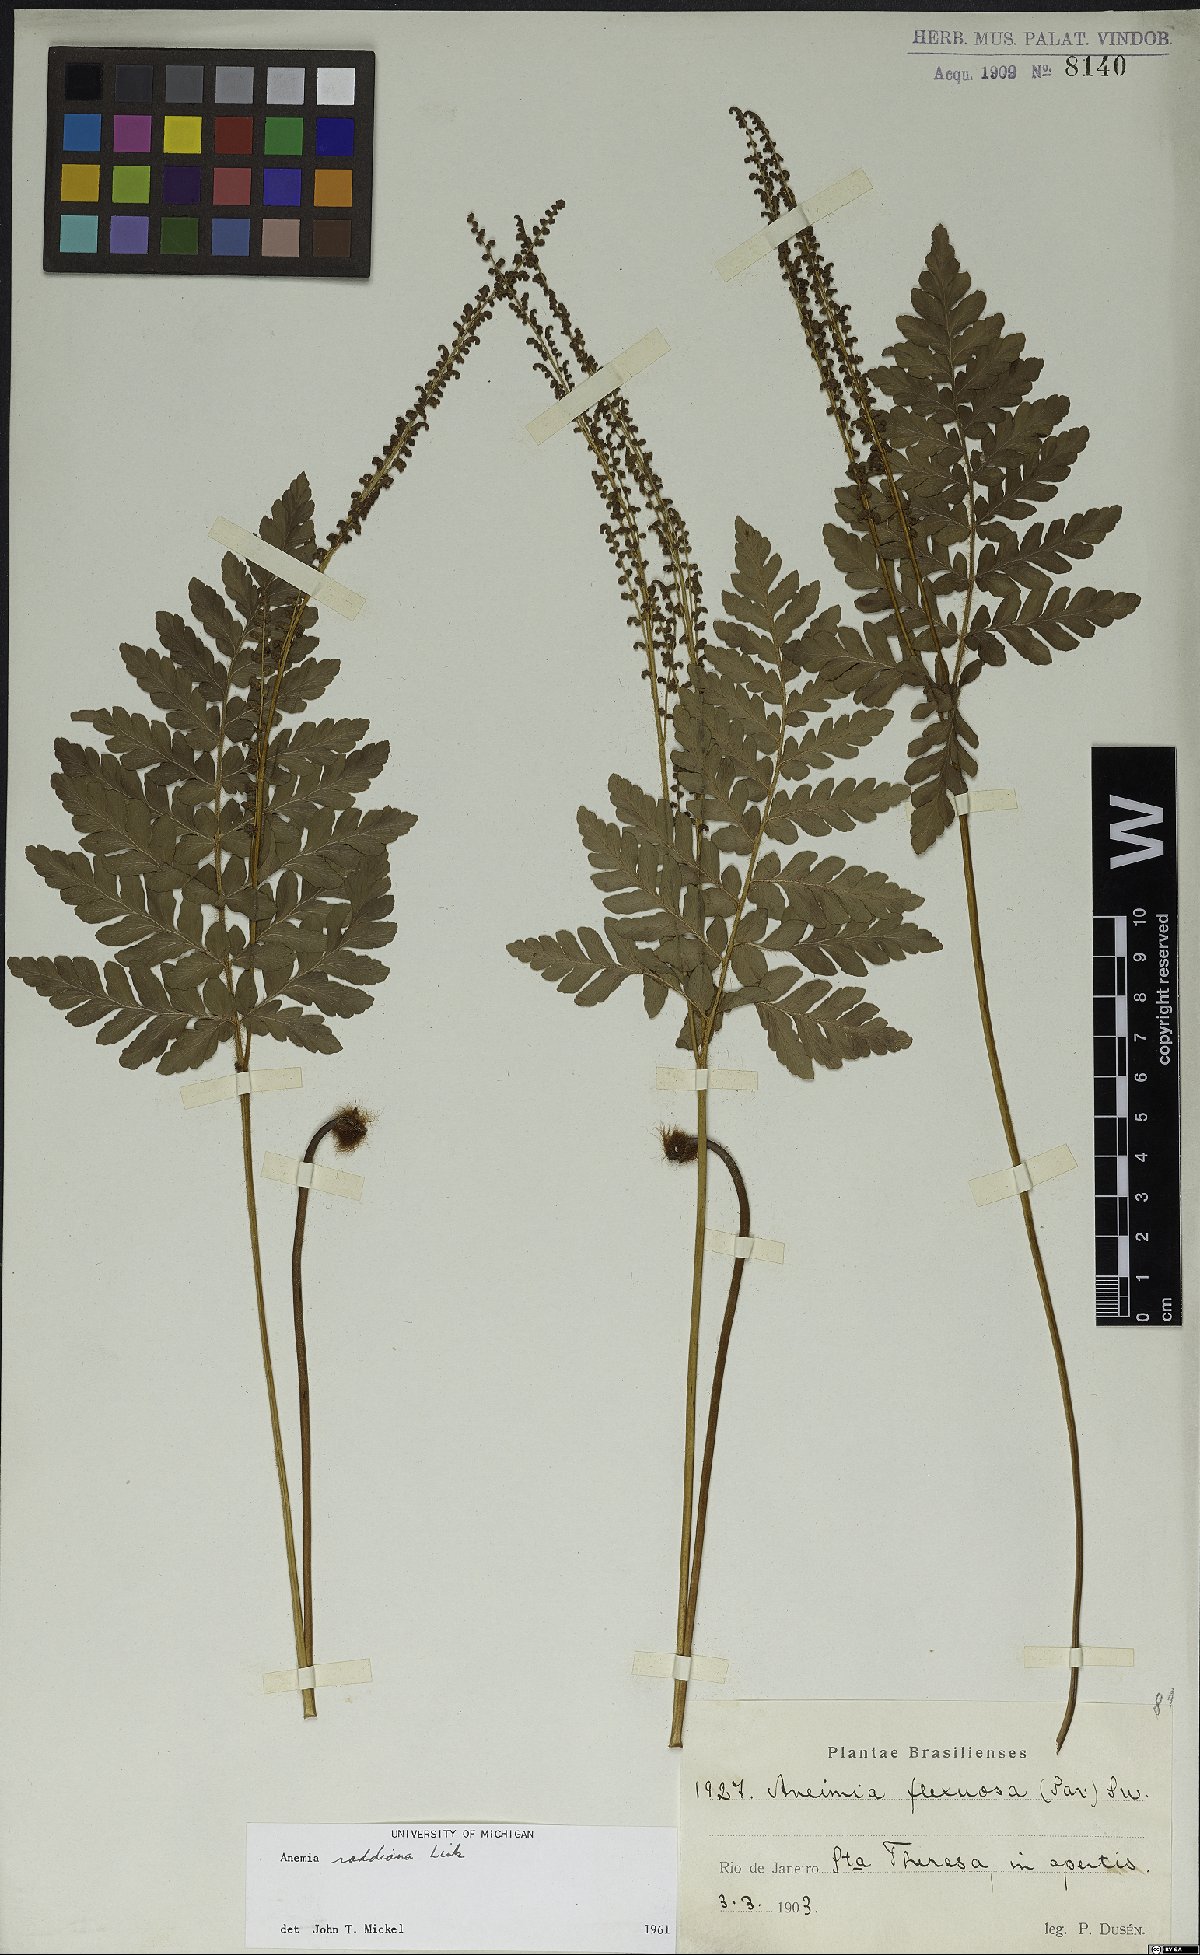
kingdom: Plantae
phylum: Tracheophyta
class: Polypodiopsida
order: Schizaeales
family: Anemiaceae
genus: Anemia
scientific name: Anemia raddiana
